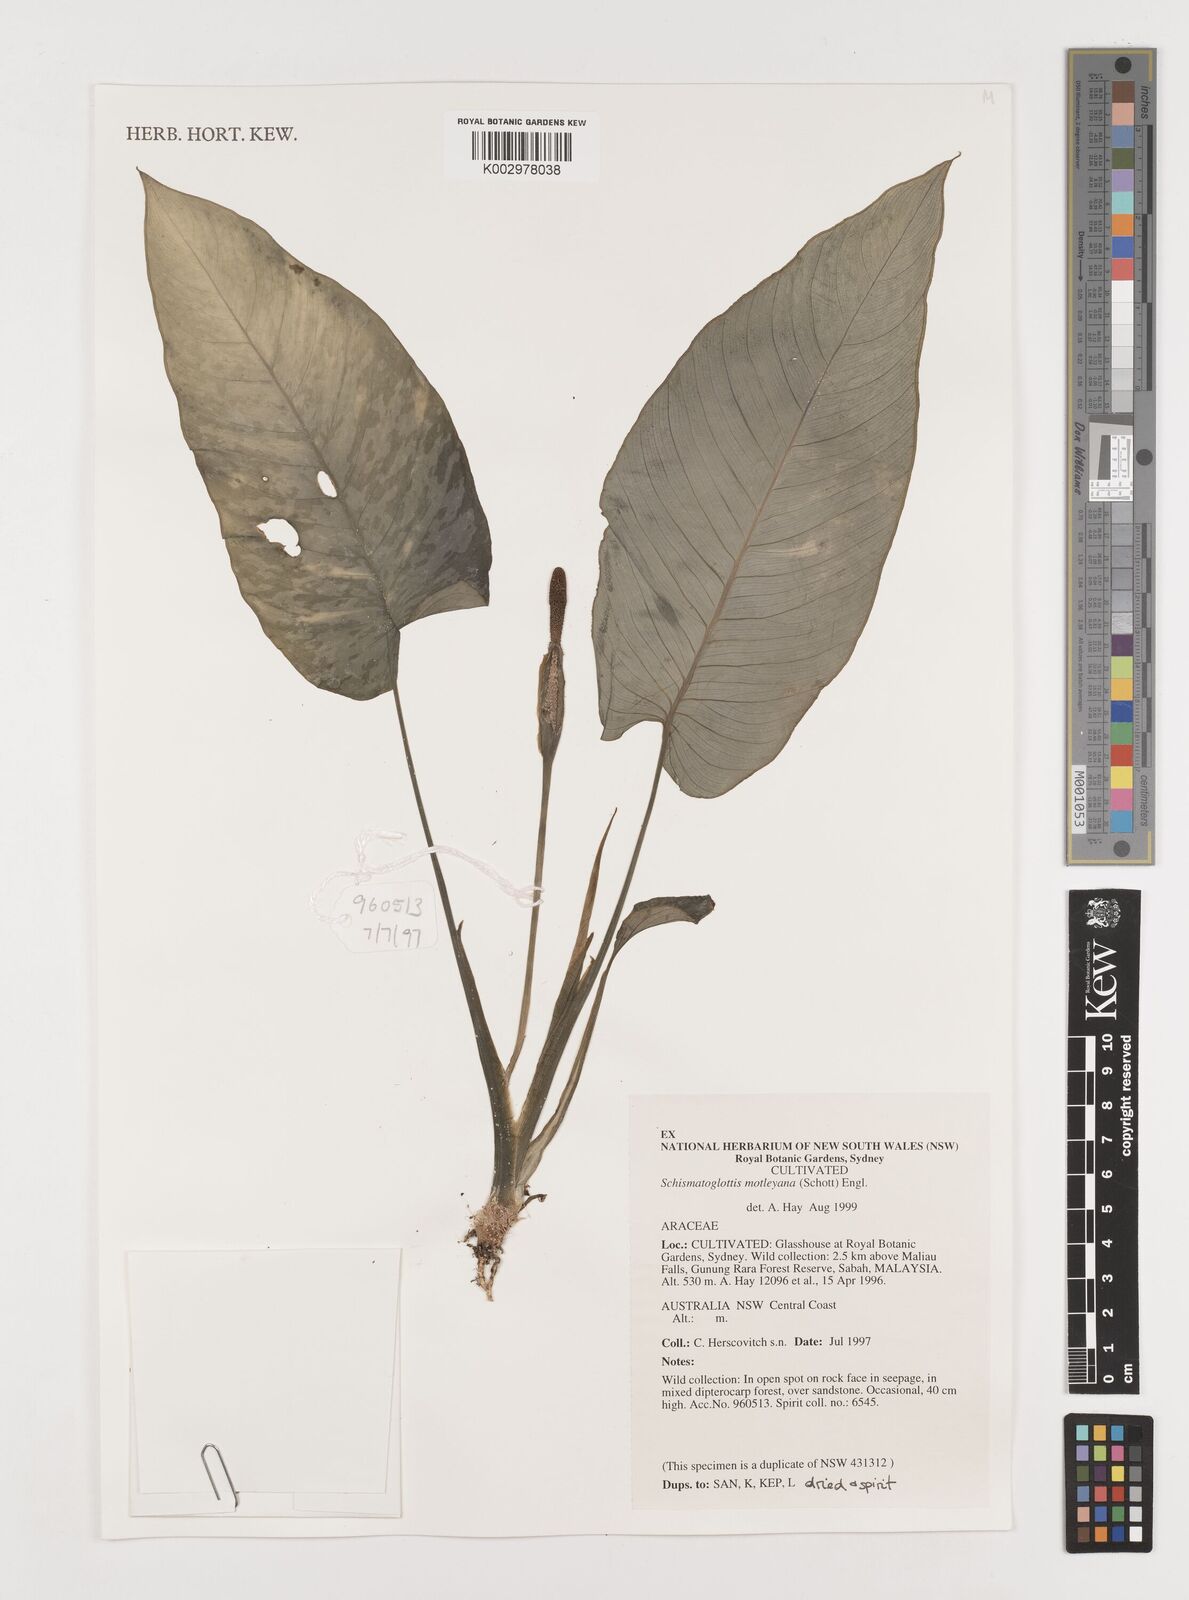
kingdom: Plantae
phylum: Tracheophyta
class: Liliopsida
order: Alismatales
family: Araceae
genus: Schismatoglottis
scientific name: Schismatoglottis motleyana
